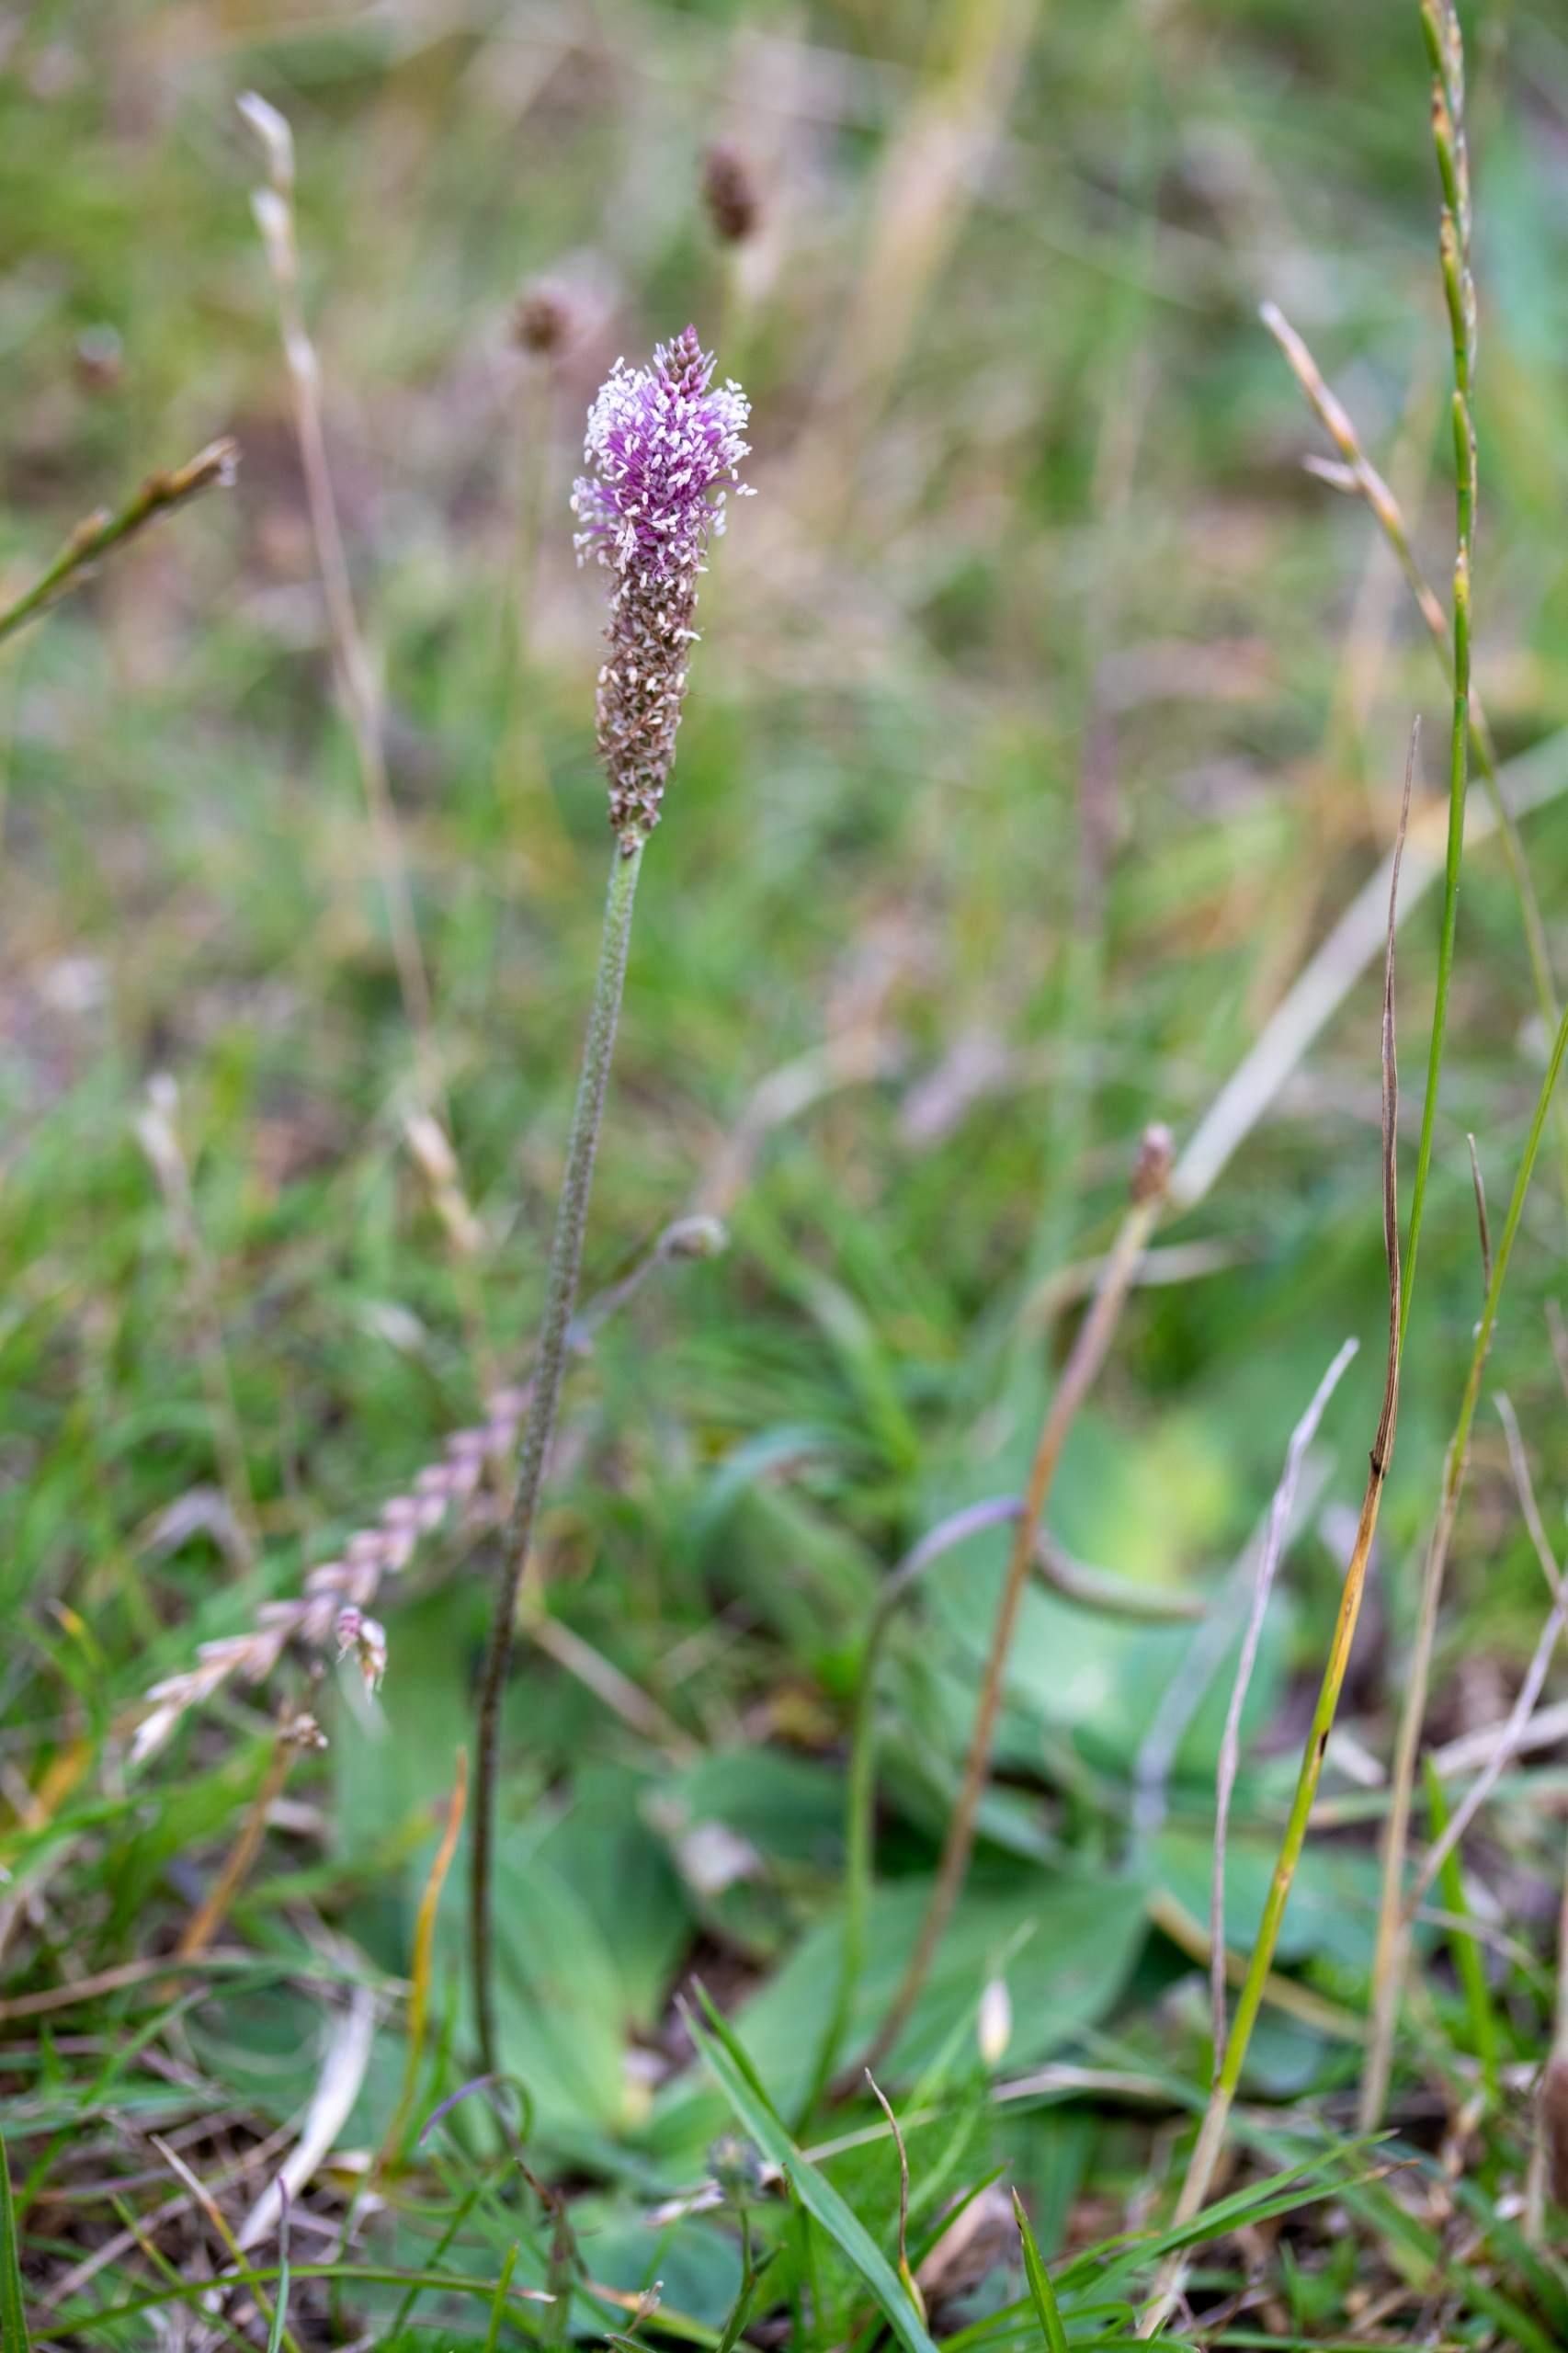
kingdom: Plantae
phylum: Tracheophyta
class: Magnoliopsida
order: Lamiales
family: Plantaginaceae
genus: Plantago
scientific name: Plantago media
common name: Dunet vejbred
